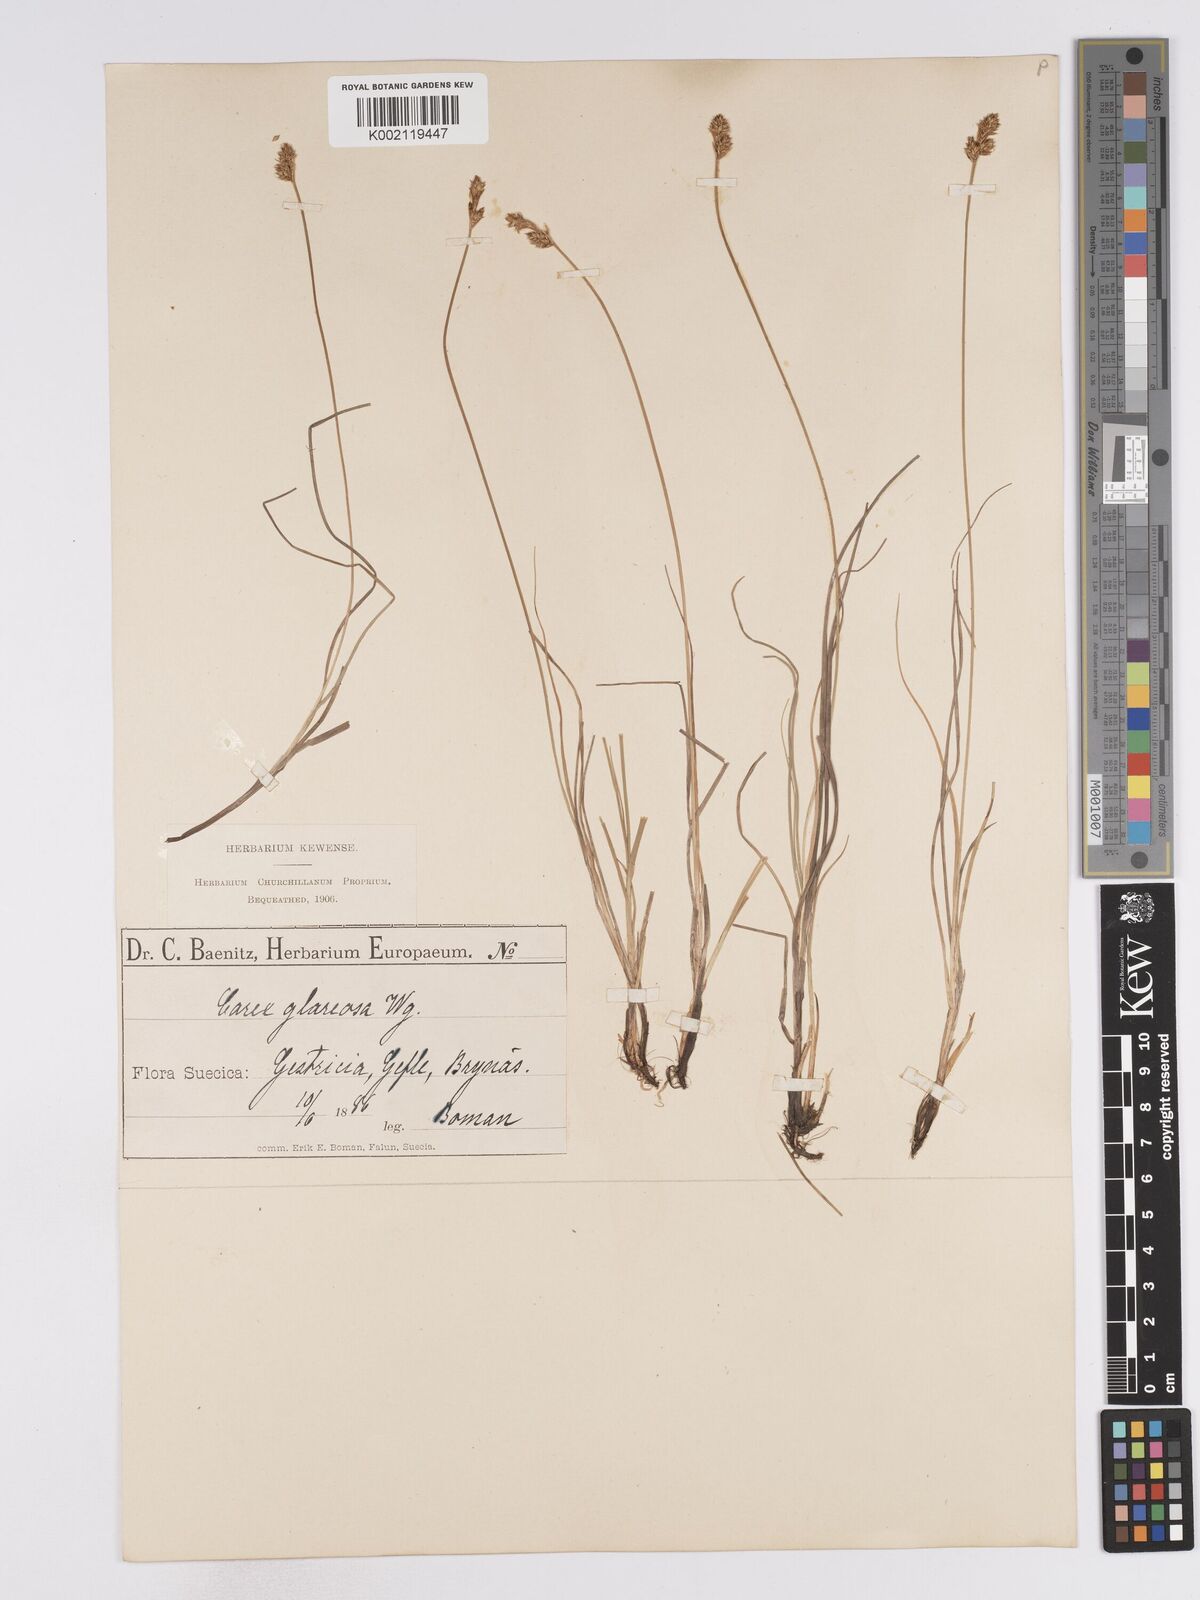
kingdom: Plantae
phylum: Tracheophyta
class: Liliopsida
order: Poales
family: Cyperaceae
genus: Carex
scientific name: Carex glareosa
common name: Clustered sedge
